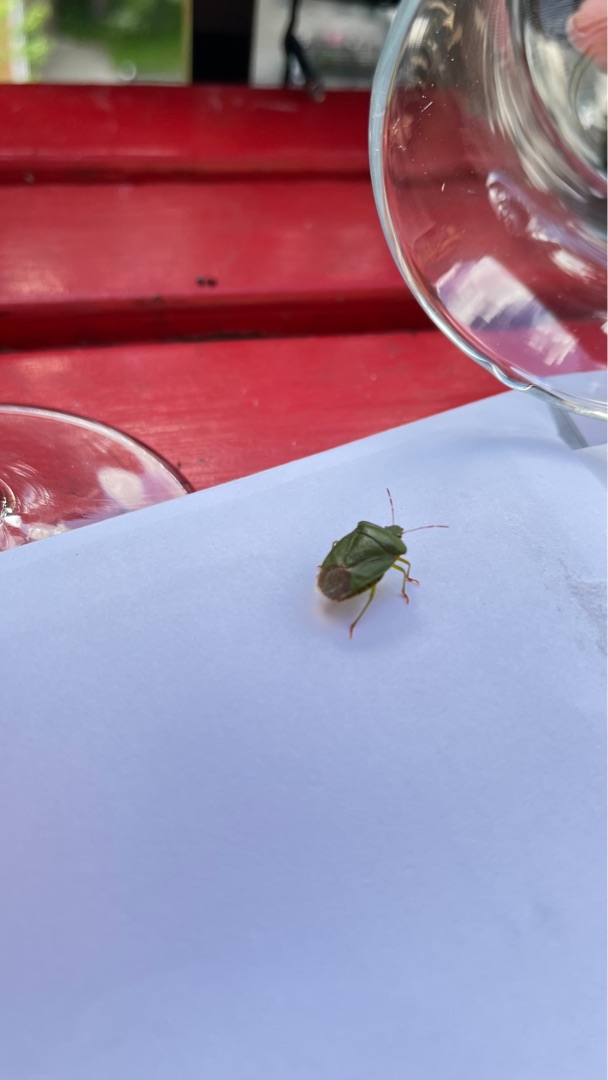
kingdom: Animalia
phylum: Arthropoda
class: Insecta
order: Hemiptera
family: Pentatomidae
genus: Palomena
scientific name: Palomena prasina
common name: Grøn bredtæge
